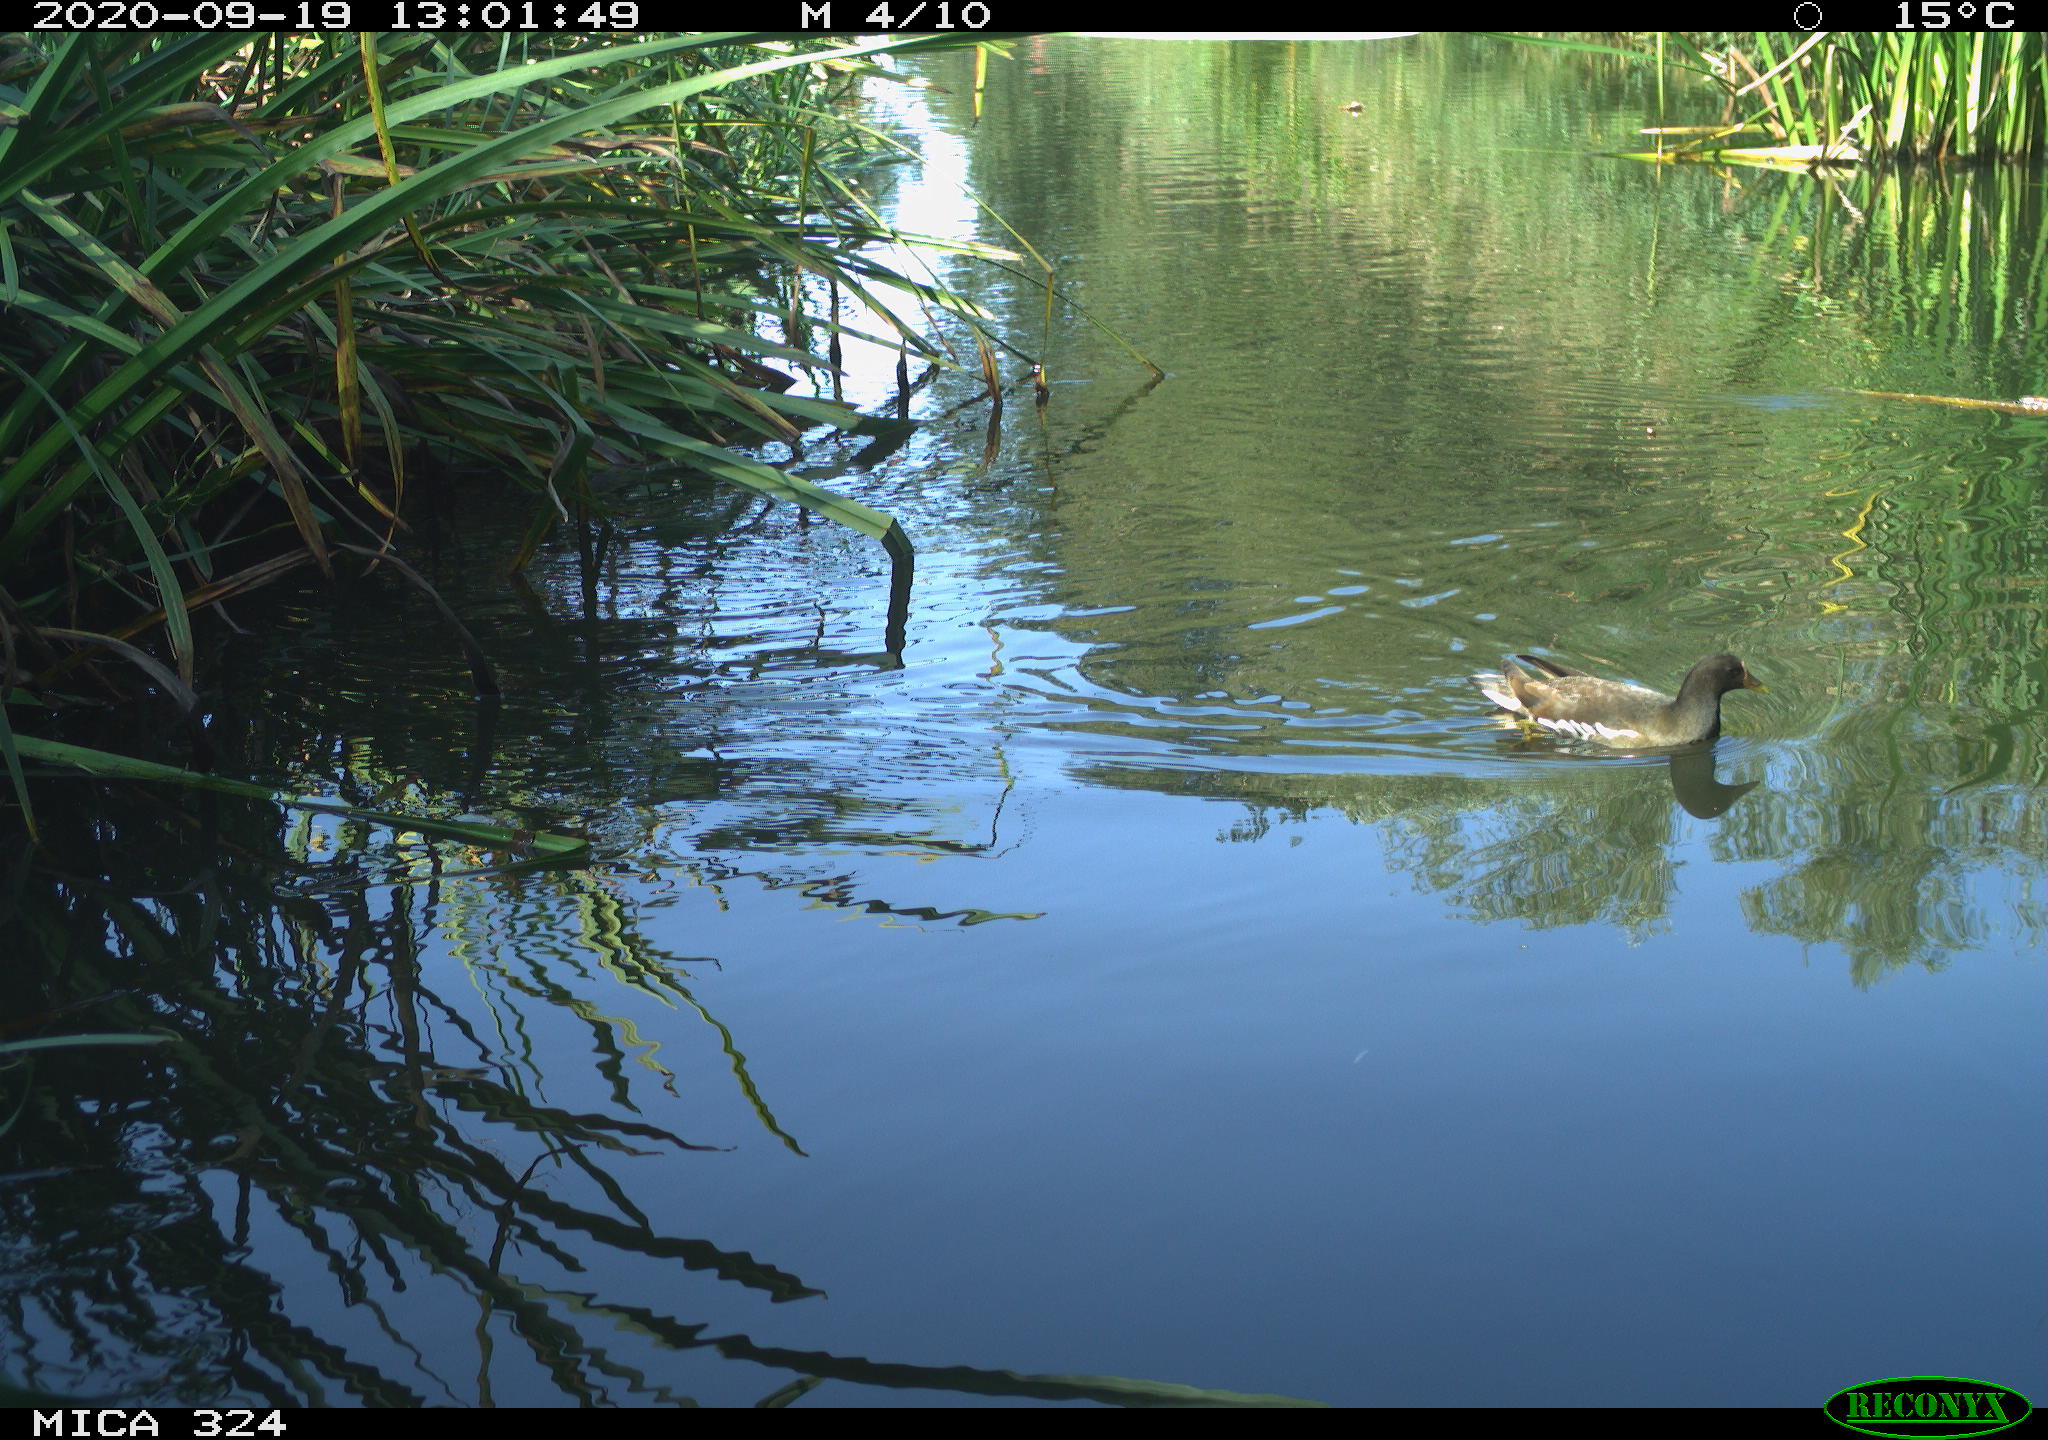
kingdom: Animalia
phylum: Chordata
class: Aves
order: Gruiformes
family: Rallidae
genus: Gallinula
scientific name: Gallinula chloropus
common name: Common moorhen
